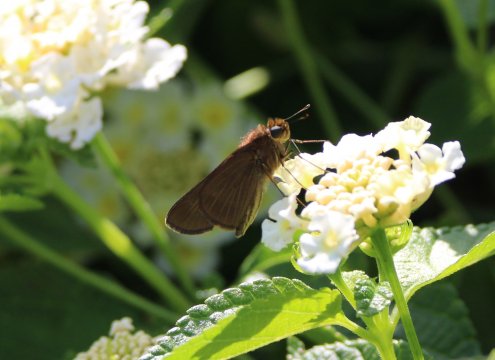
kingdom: Animalia
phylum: Arthropoda
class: Insecta
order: Lepidoptera
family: Hesperiidae
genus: Panoquina
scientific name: Panoquina ocola
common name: Ocola Skipper
